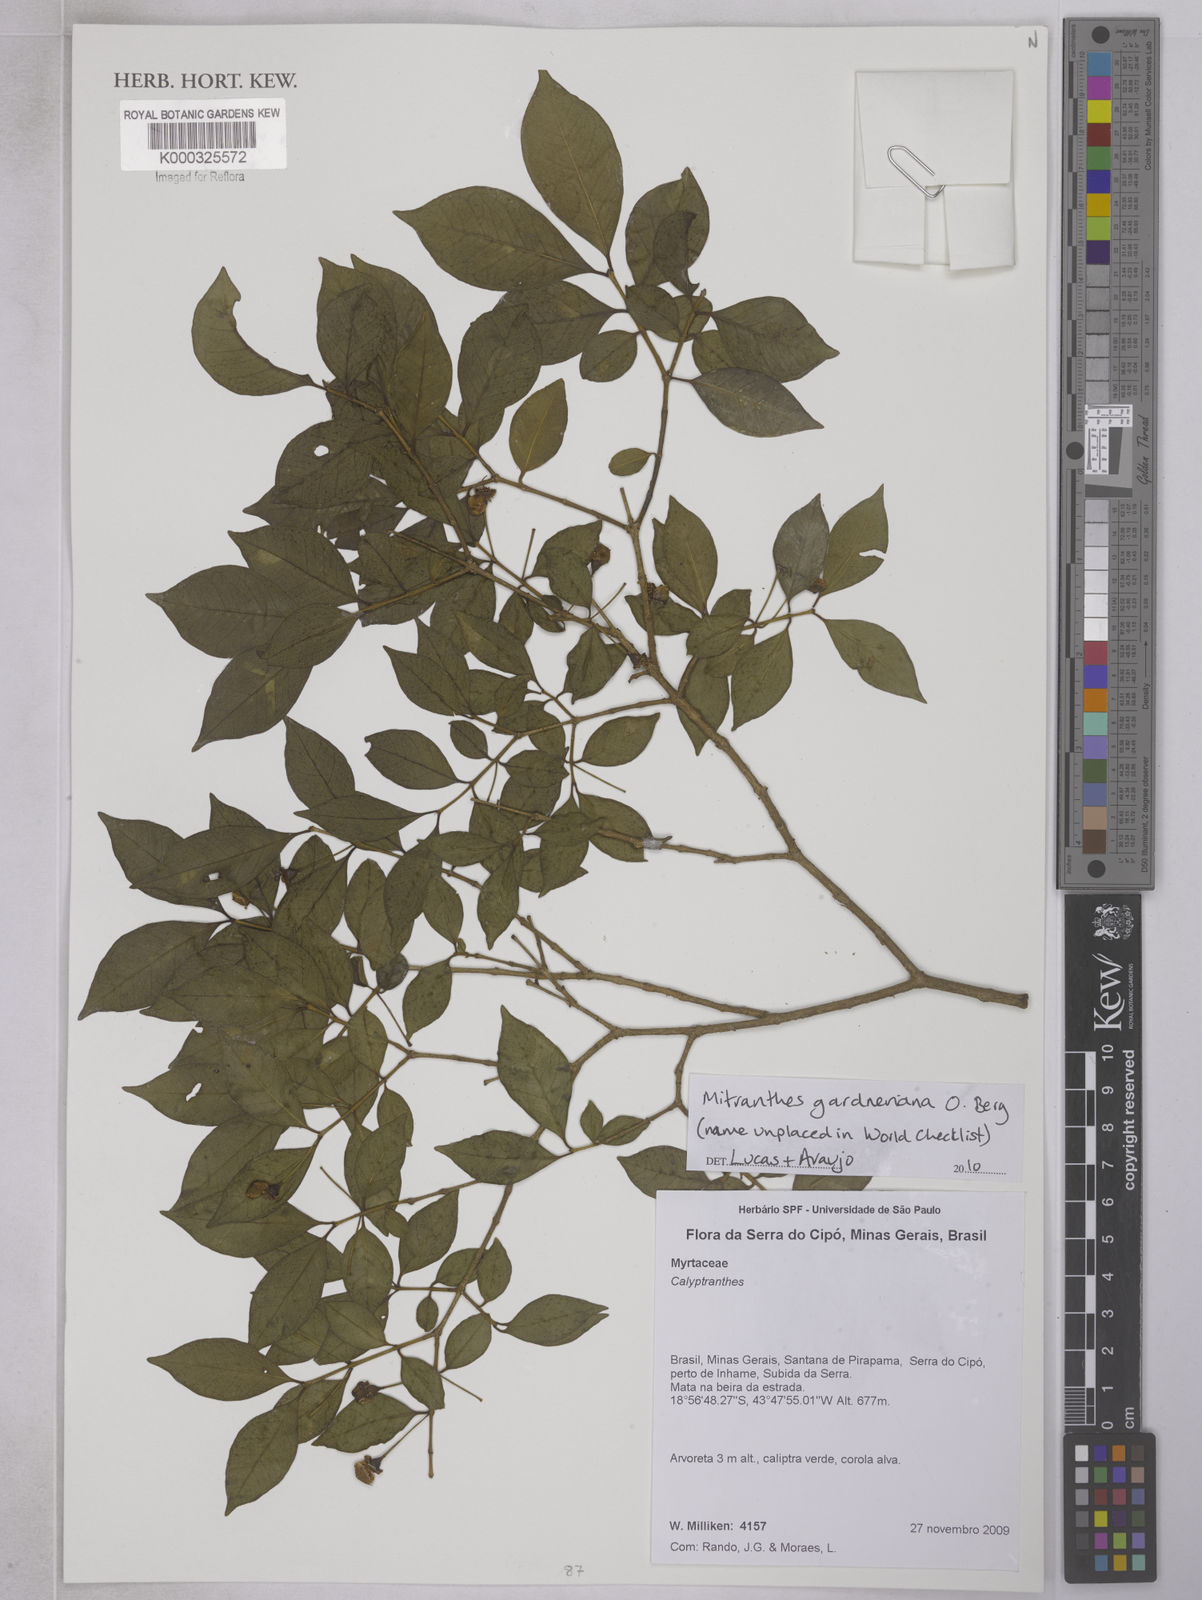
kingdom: Plantae
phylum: Tracheophyta
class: Magnoliopsida
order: Myrtales
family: Myrtaceae
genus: Psidium
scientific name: Psidium oligospermum
